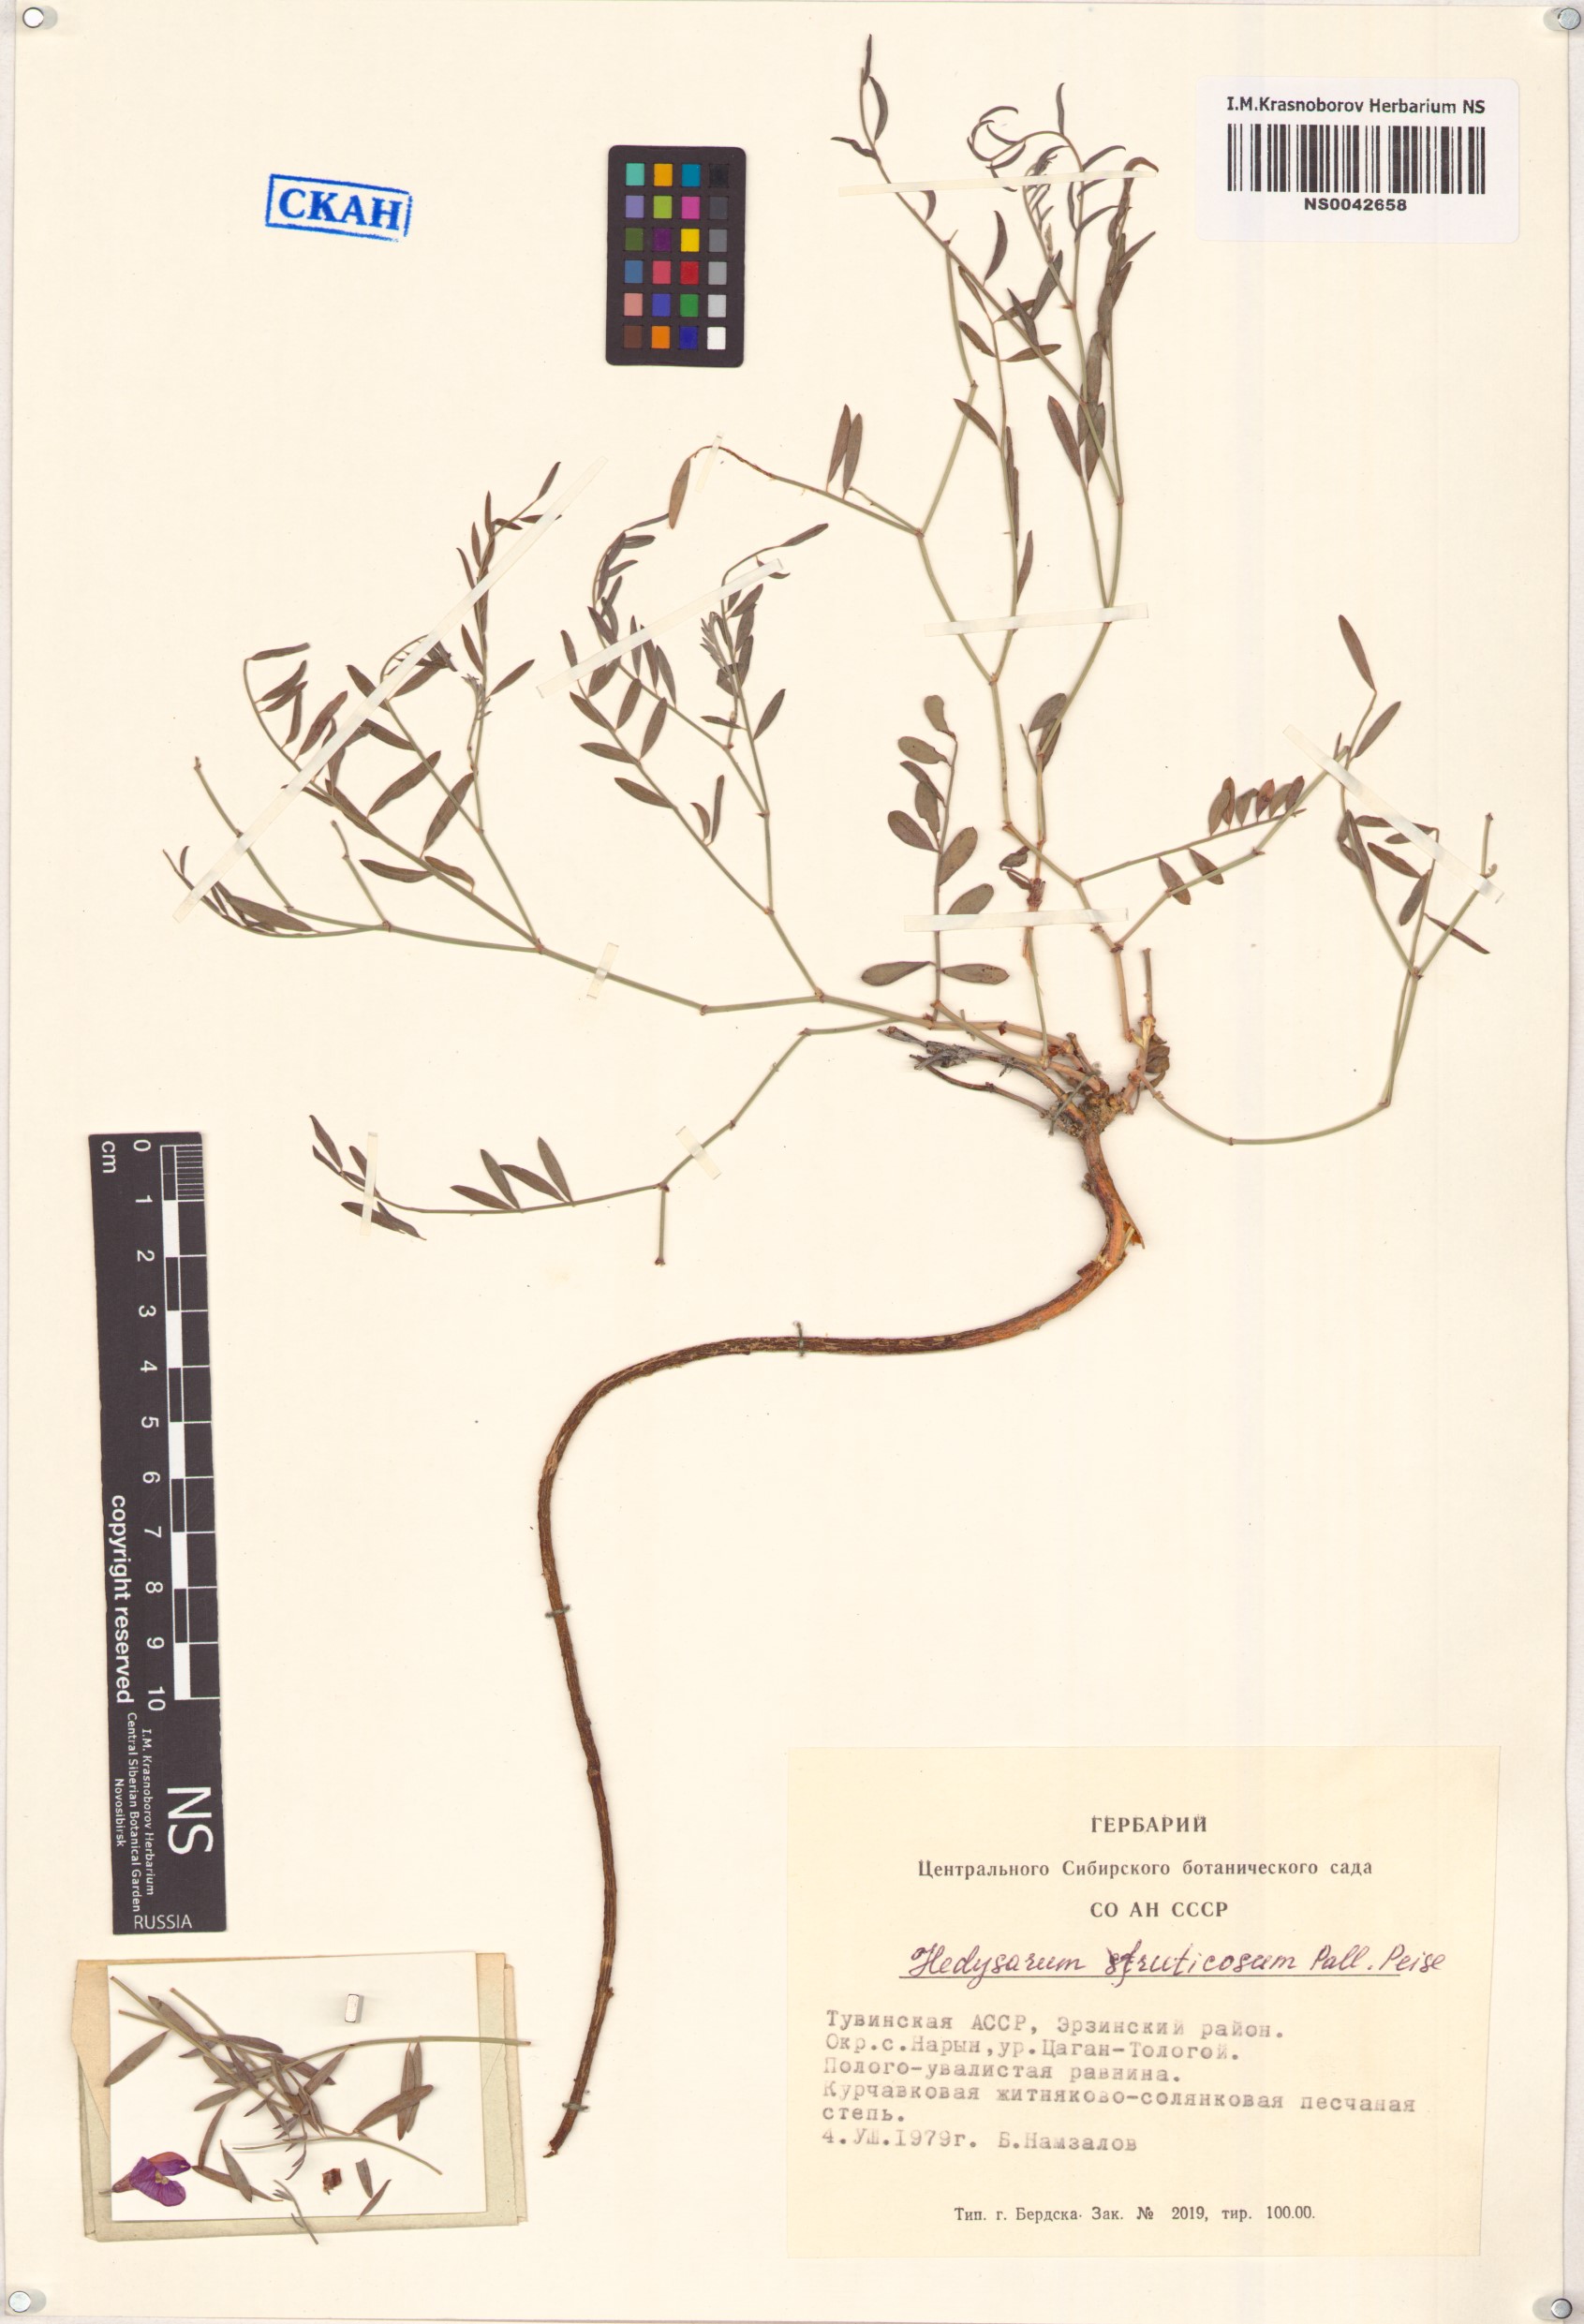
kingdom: Plantae
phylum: Tracheophyta
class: Magnoliopsida
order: Fabales
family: Fabaceae
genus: Corethrodendron
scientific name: Corethrodendron fruticosum
